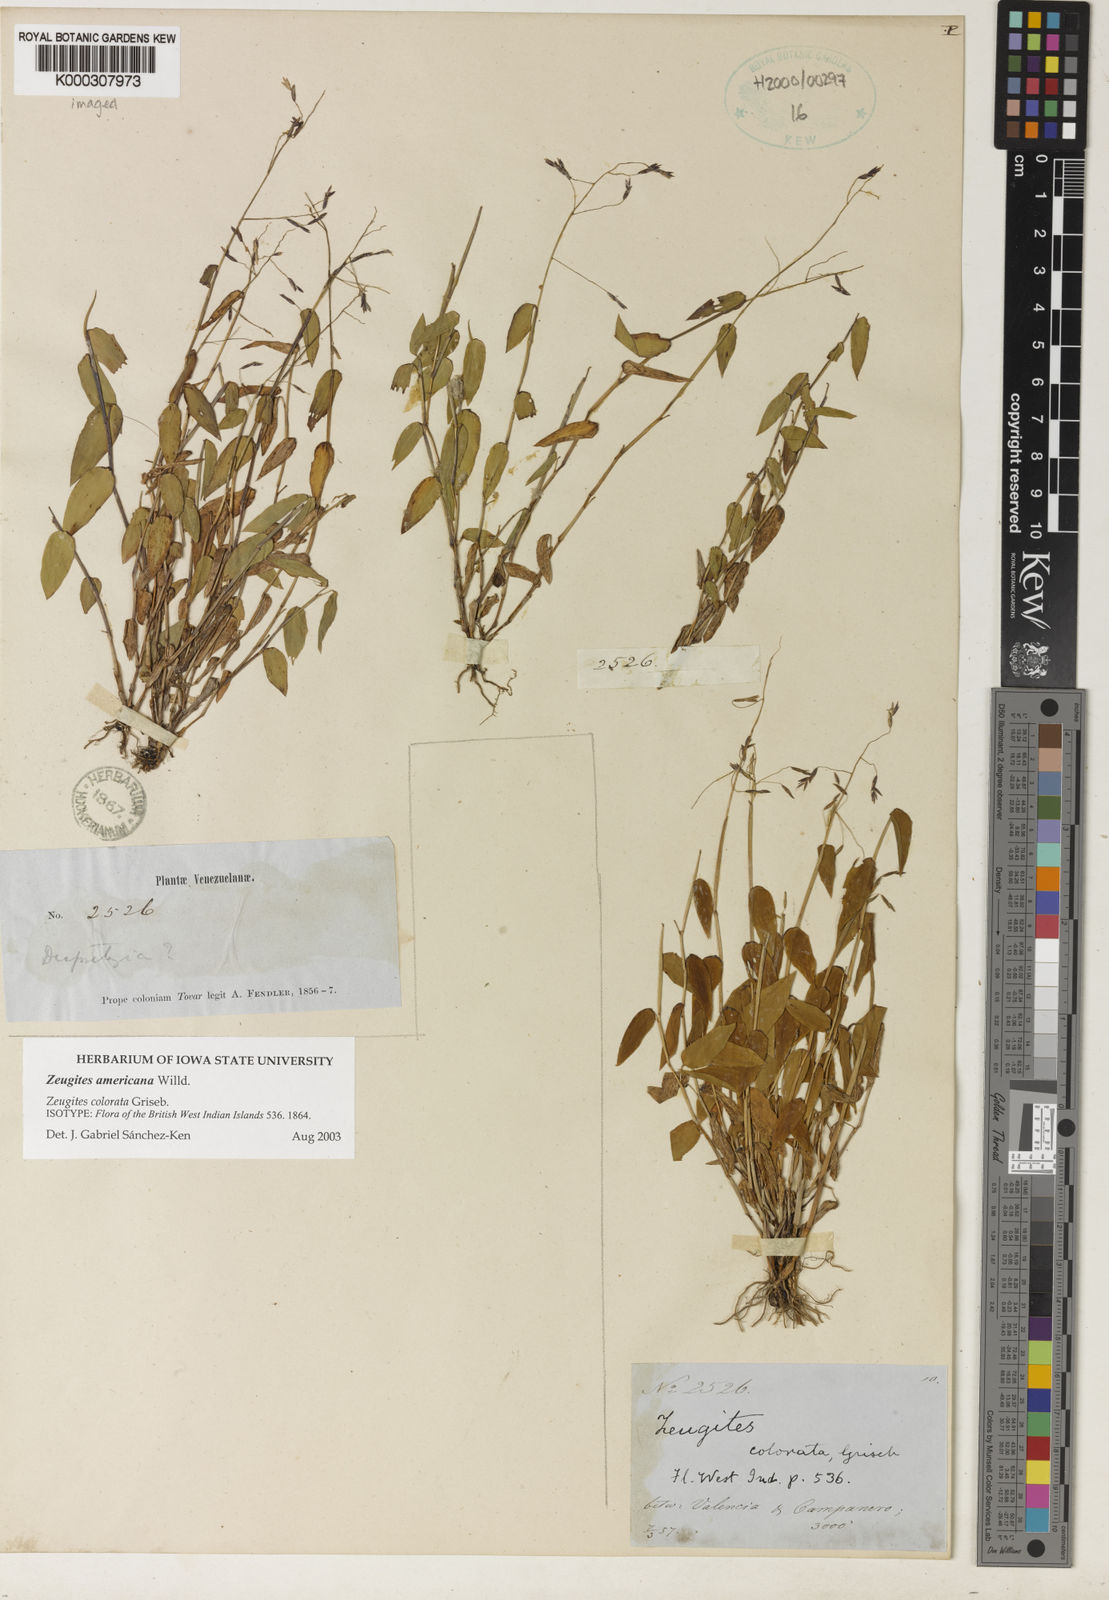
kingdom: Plantae
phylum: Tracheophyta
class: Liliopsida
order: Poales
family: Poaceae
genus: Zeugites
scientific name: Zeugites
